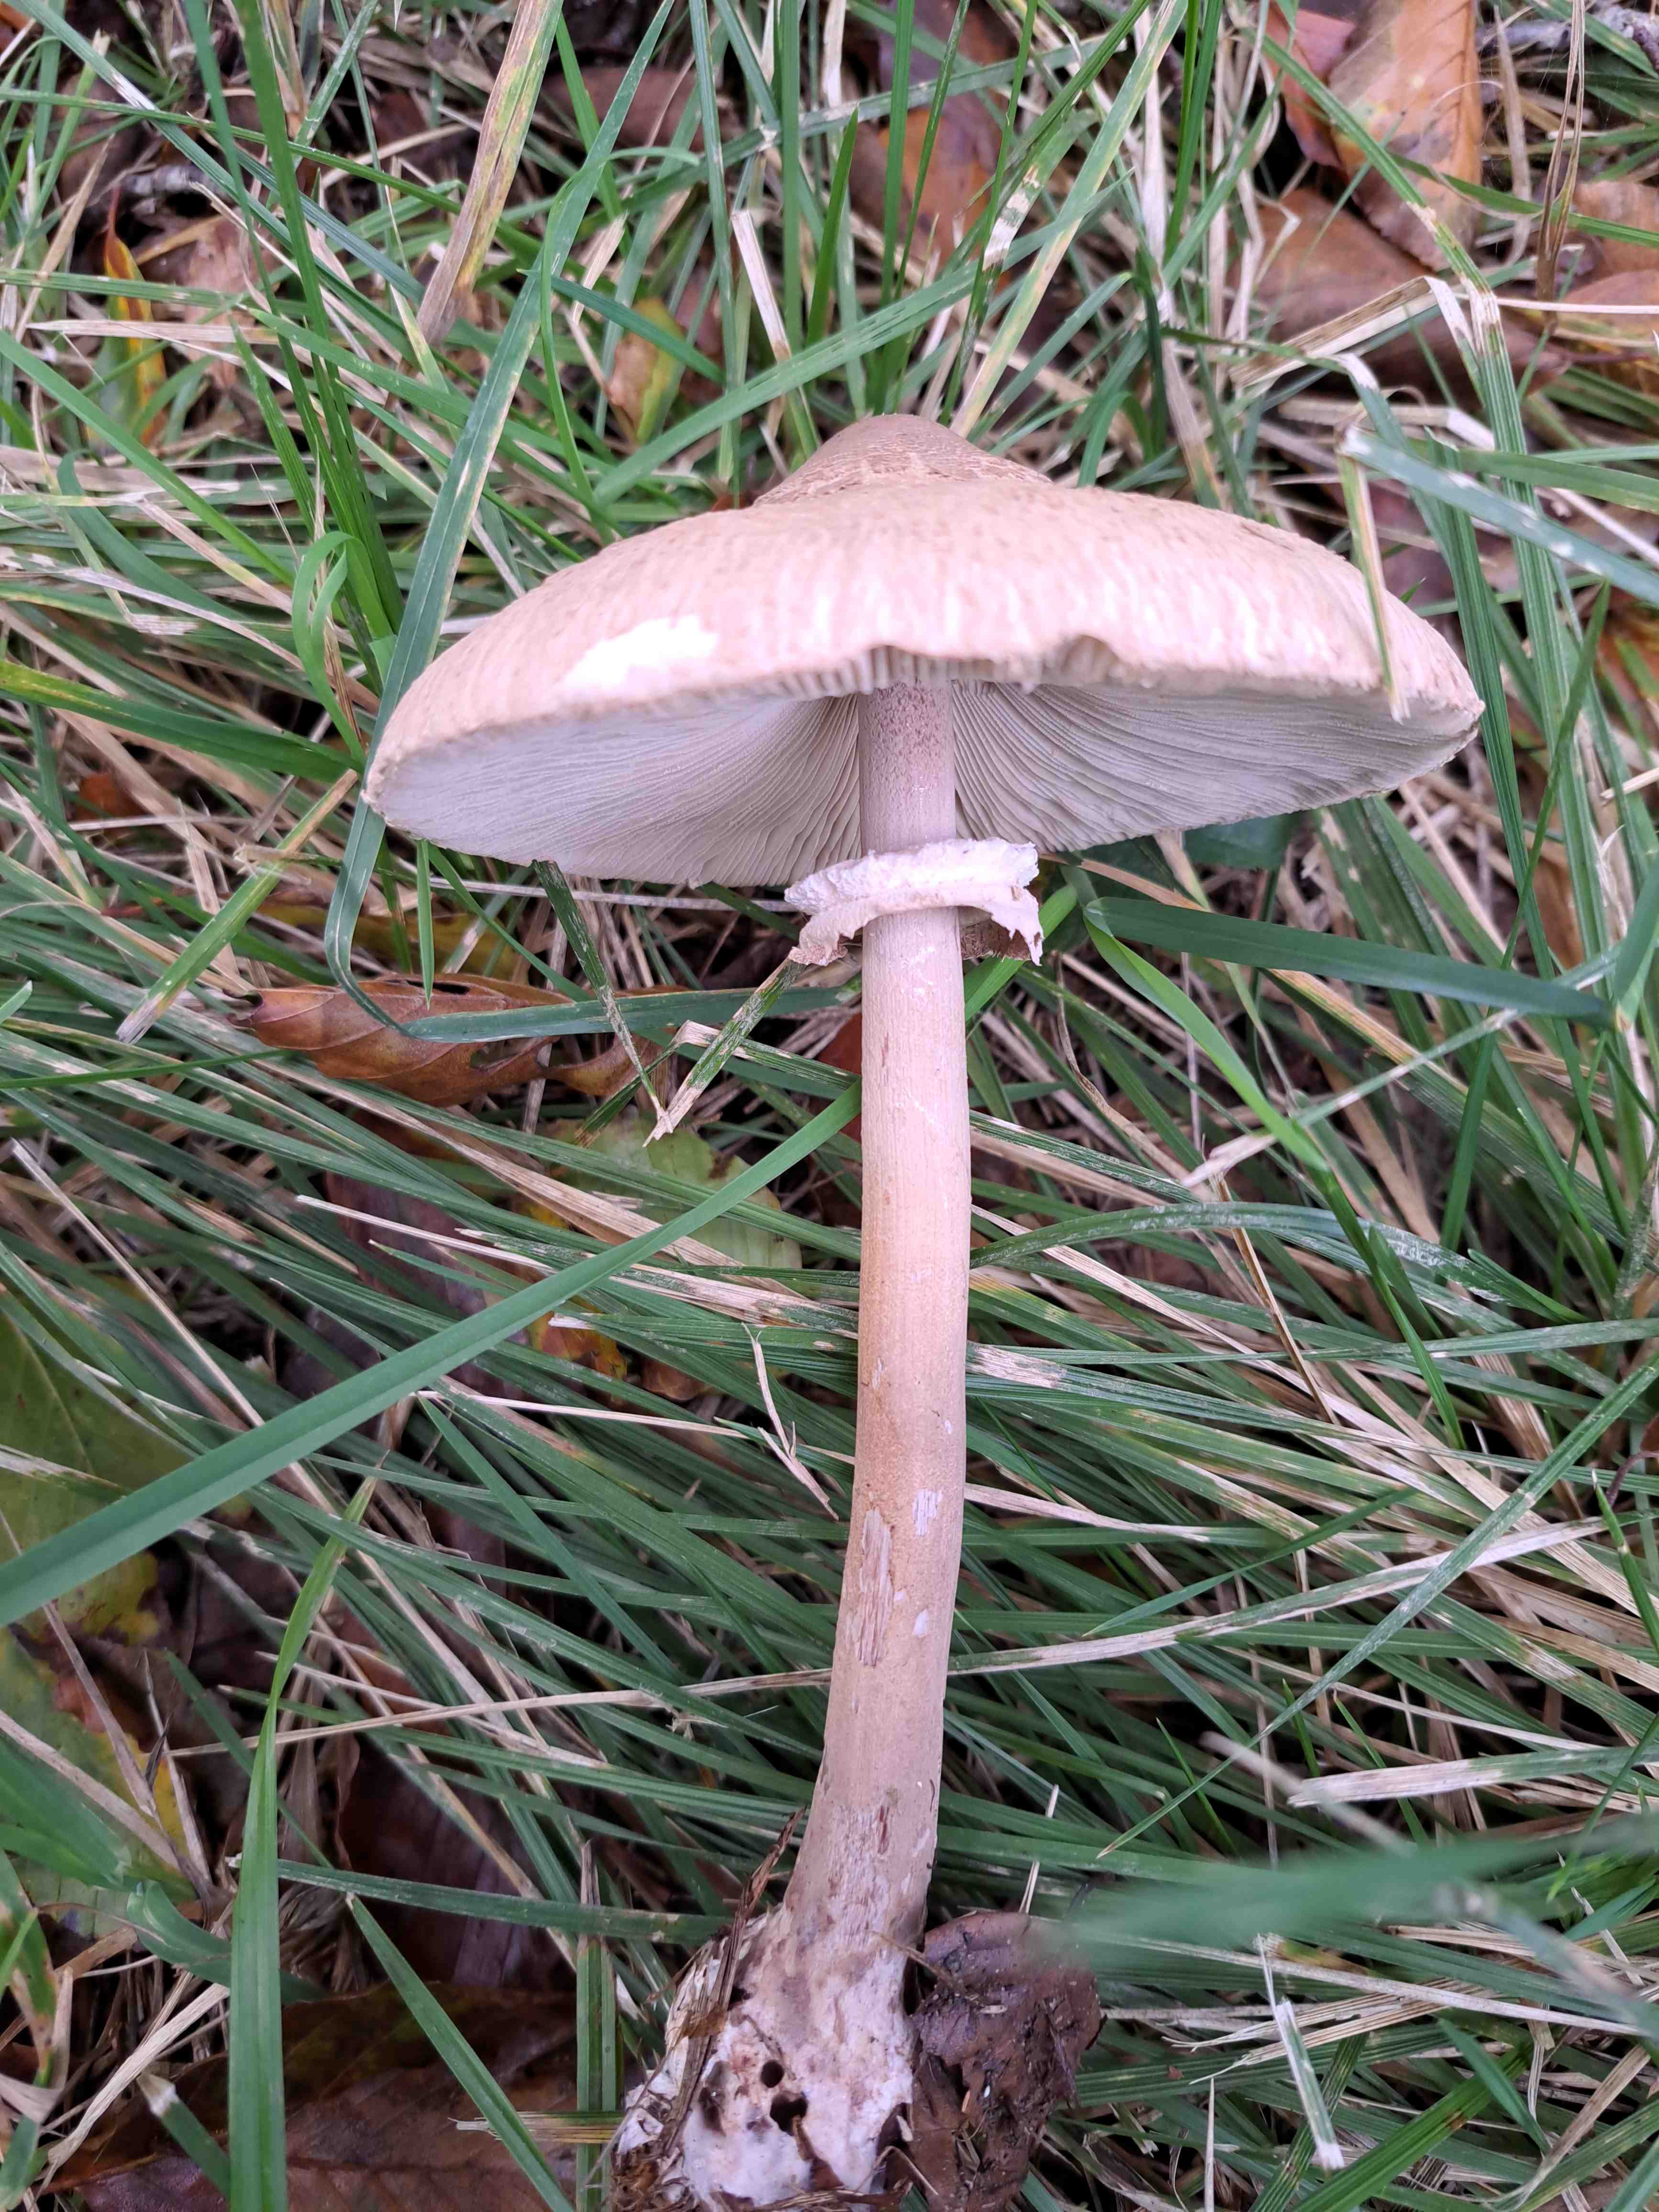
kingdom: Fungi
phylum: Basidiomycota
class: Agaricomycetes
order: Agaricales
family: Agaricaceae
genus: Macrolepiota
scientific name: Macrolepiota mastoidea
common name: puklet kæmpeparasolhat
